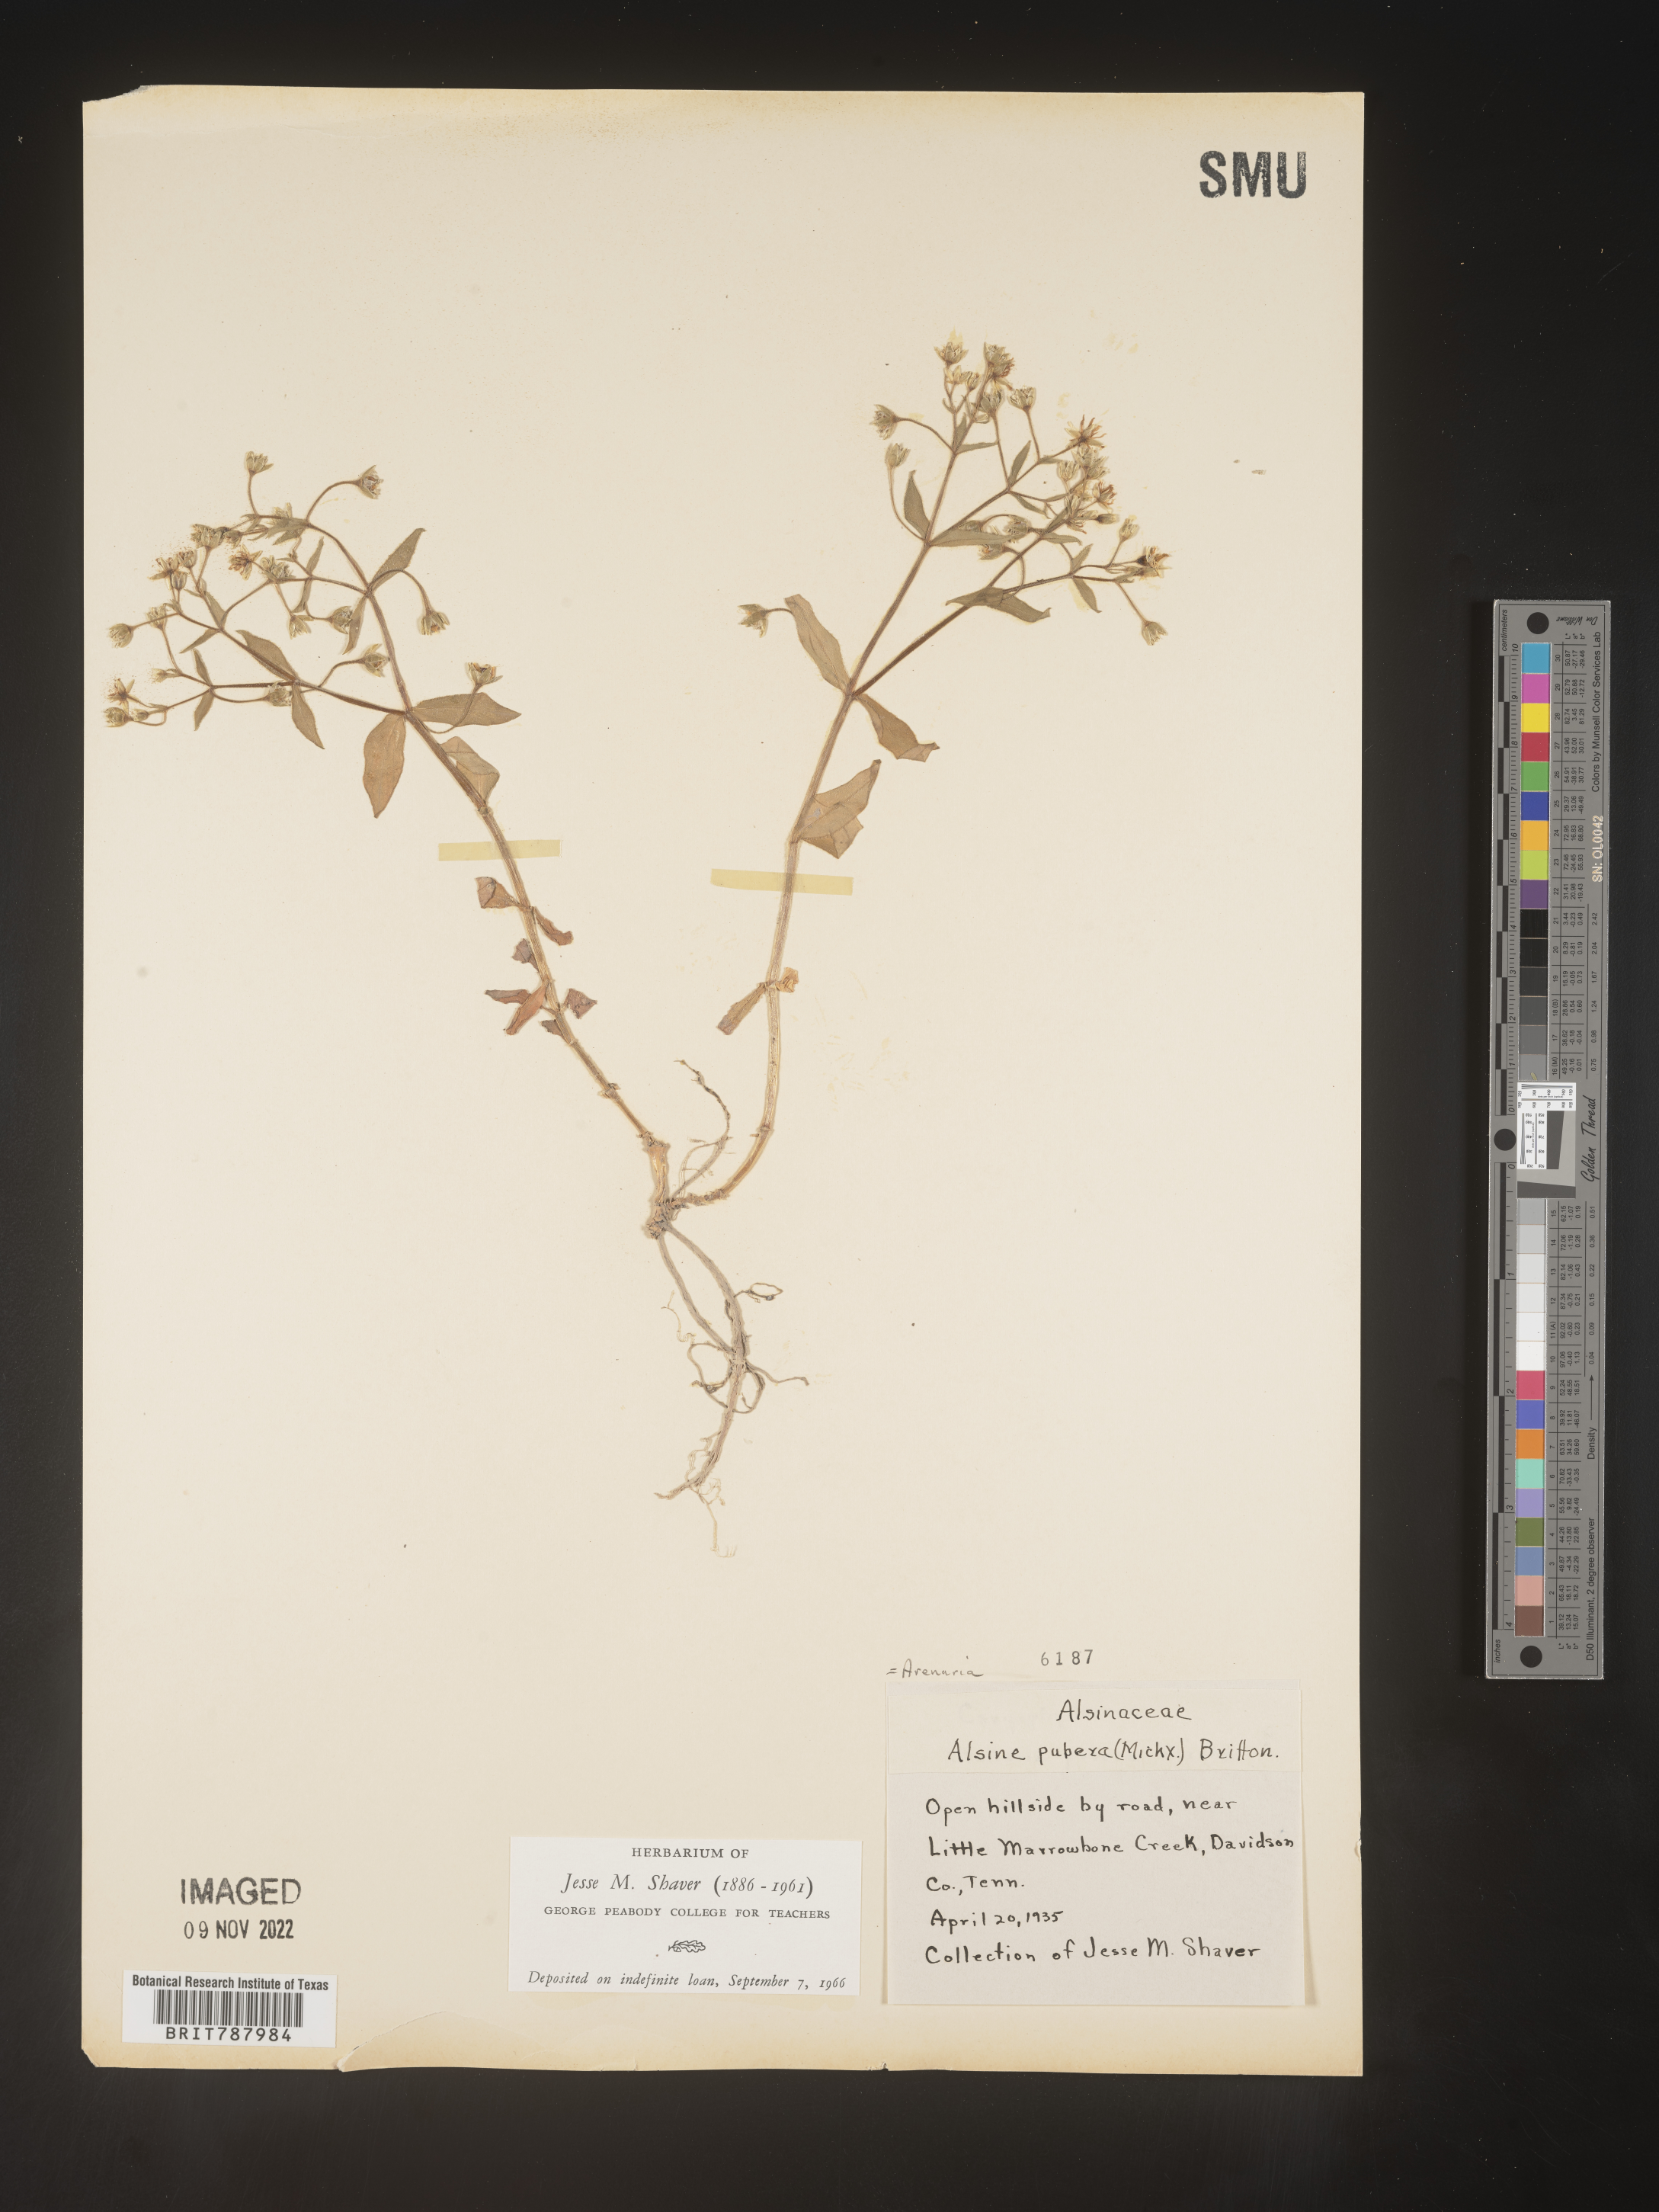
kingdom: Plantae
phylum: Tracheophyta
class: Magnoliopsida
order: Caryophyllales
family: Caryophyllaceae
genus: Arenaria
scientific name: Arenaria
